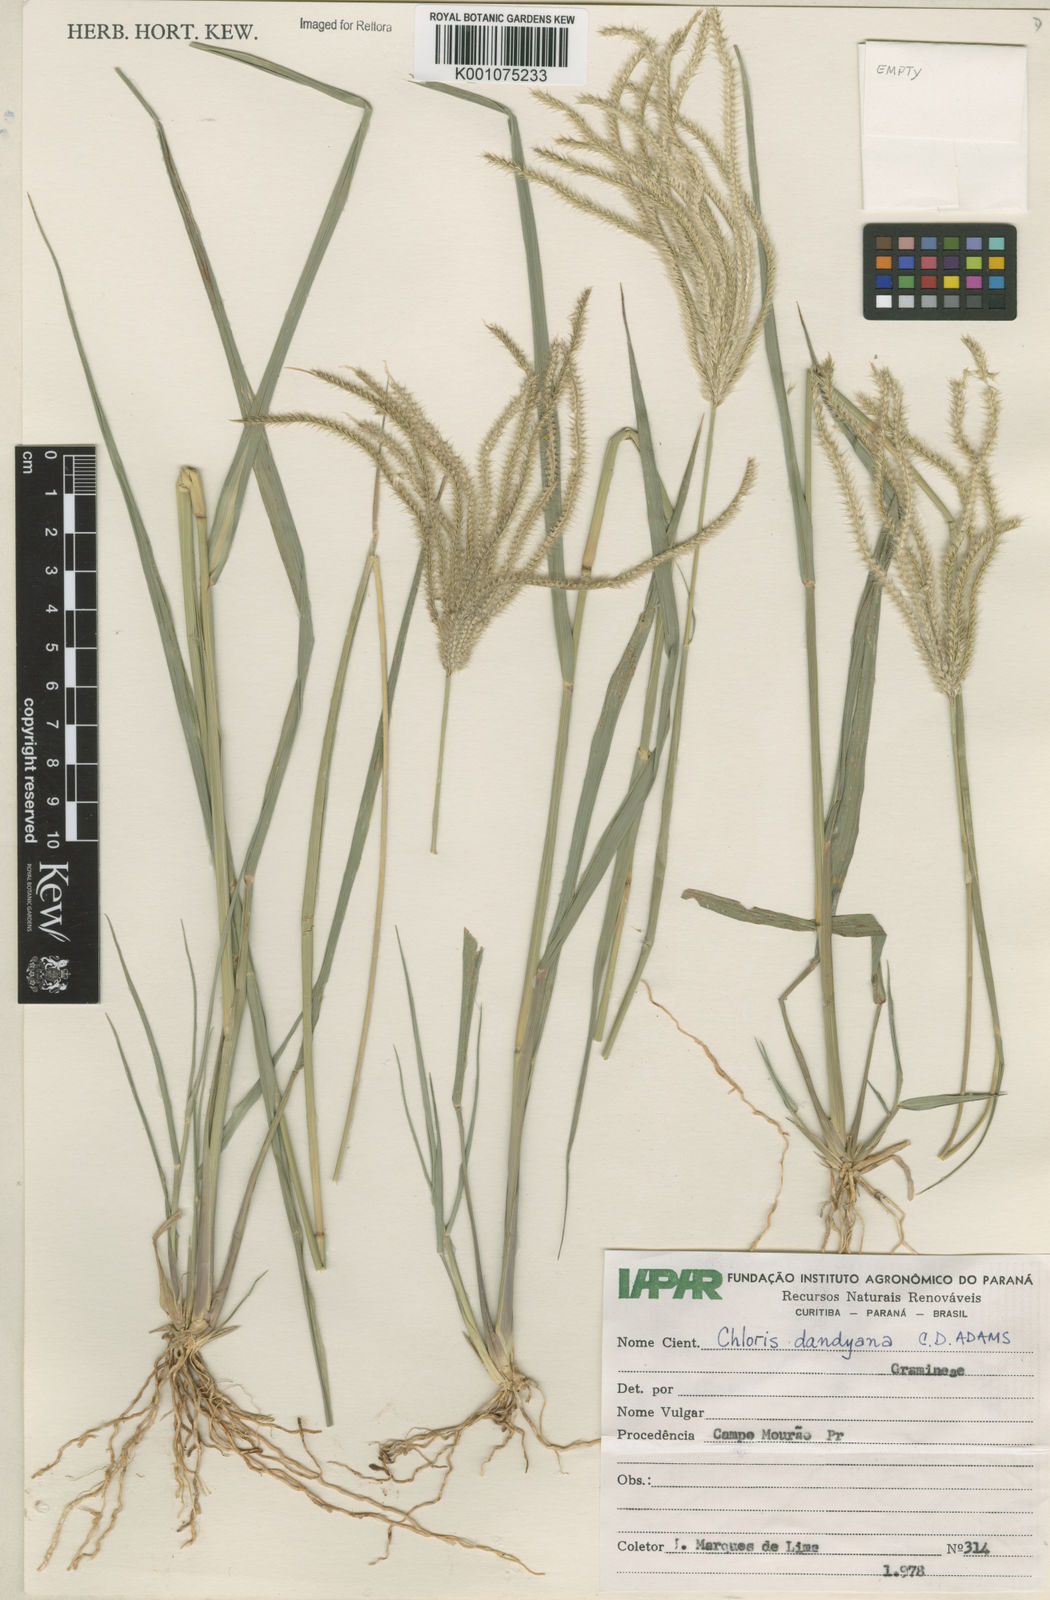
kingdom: Plantae
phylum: Tracheophyta
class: Liliopsida
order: Poales
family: Poaceae
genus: Stapfochloa
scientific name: Stapfochloa elata
